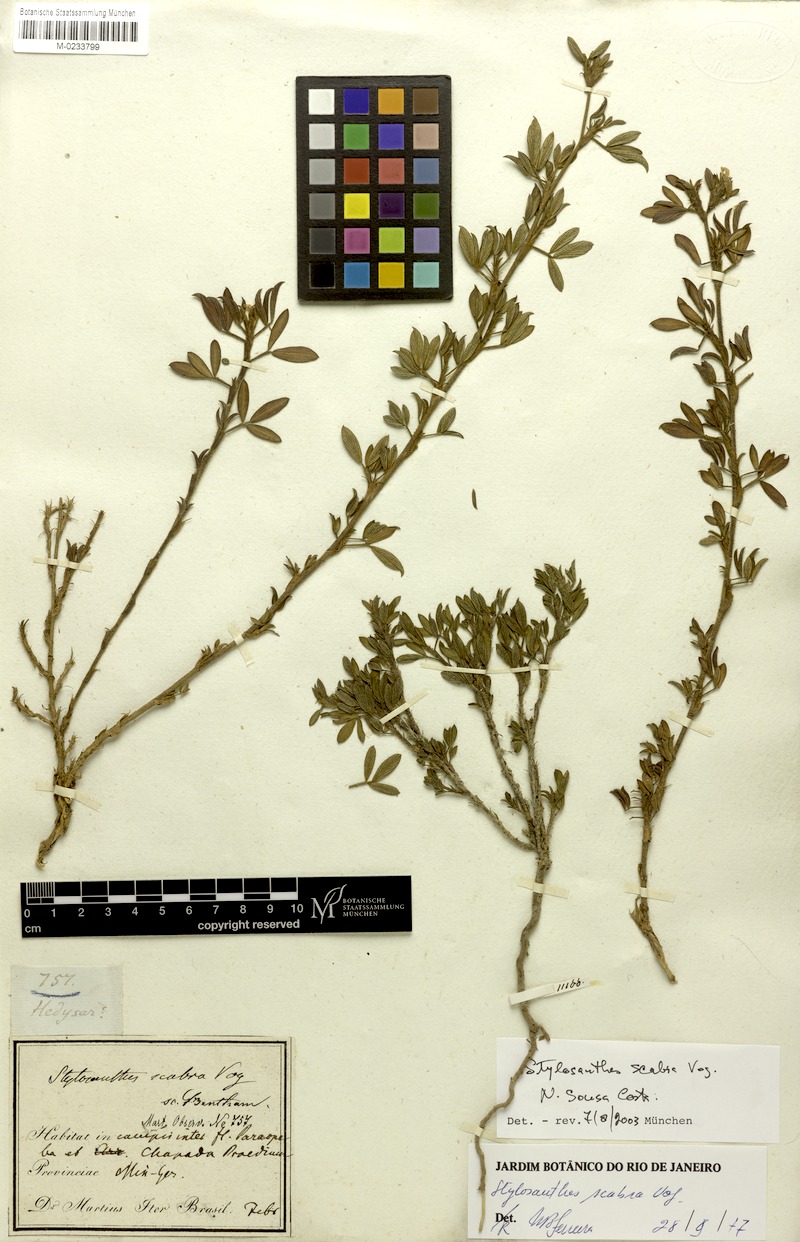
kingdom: Plantae
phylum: Tracheophyta
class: Magnoliopsida
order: Fabales
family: Fabaceae
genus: Stylosanthes
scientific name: Stylosanthes scabra
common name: Pencilflower
